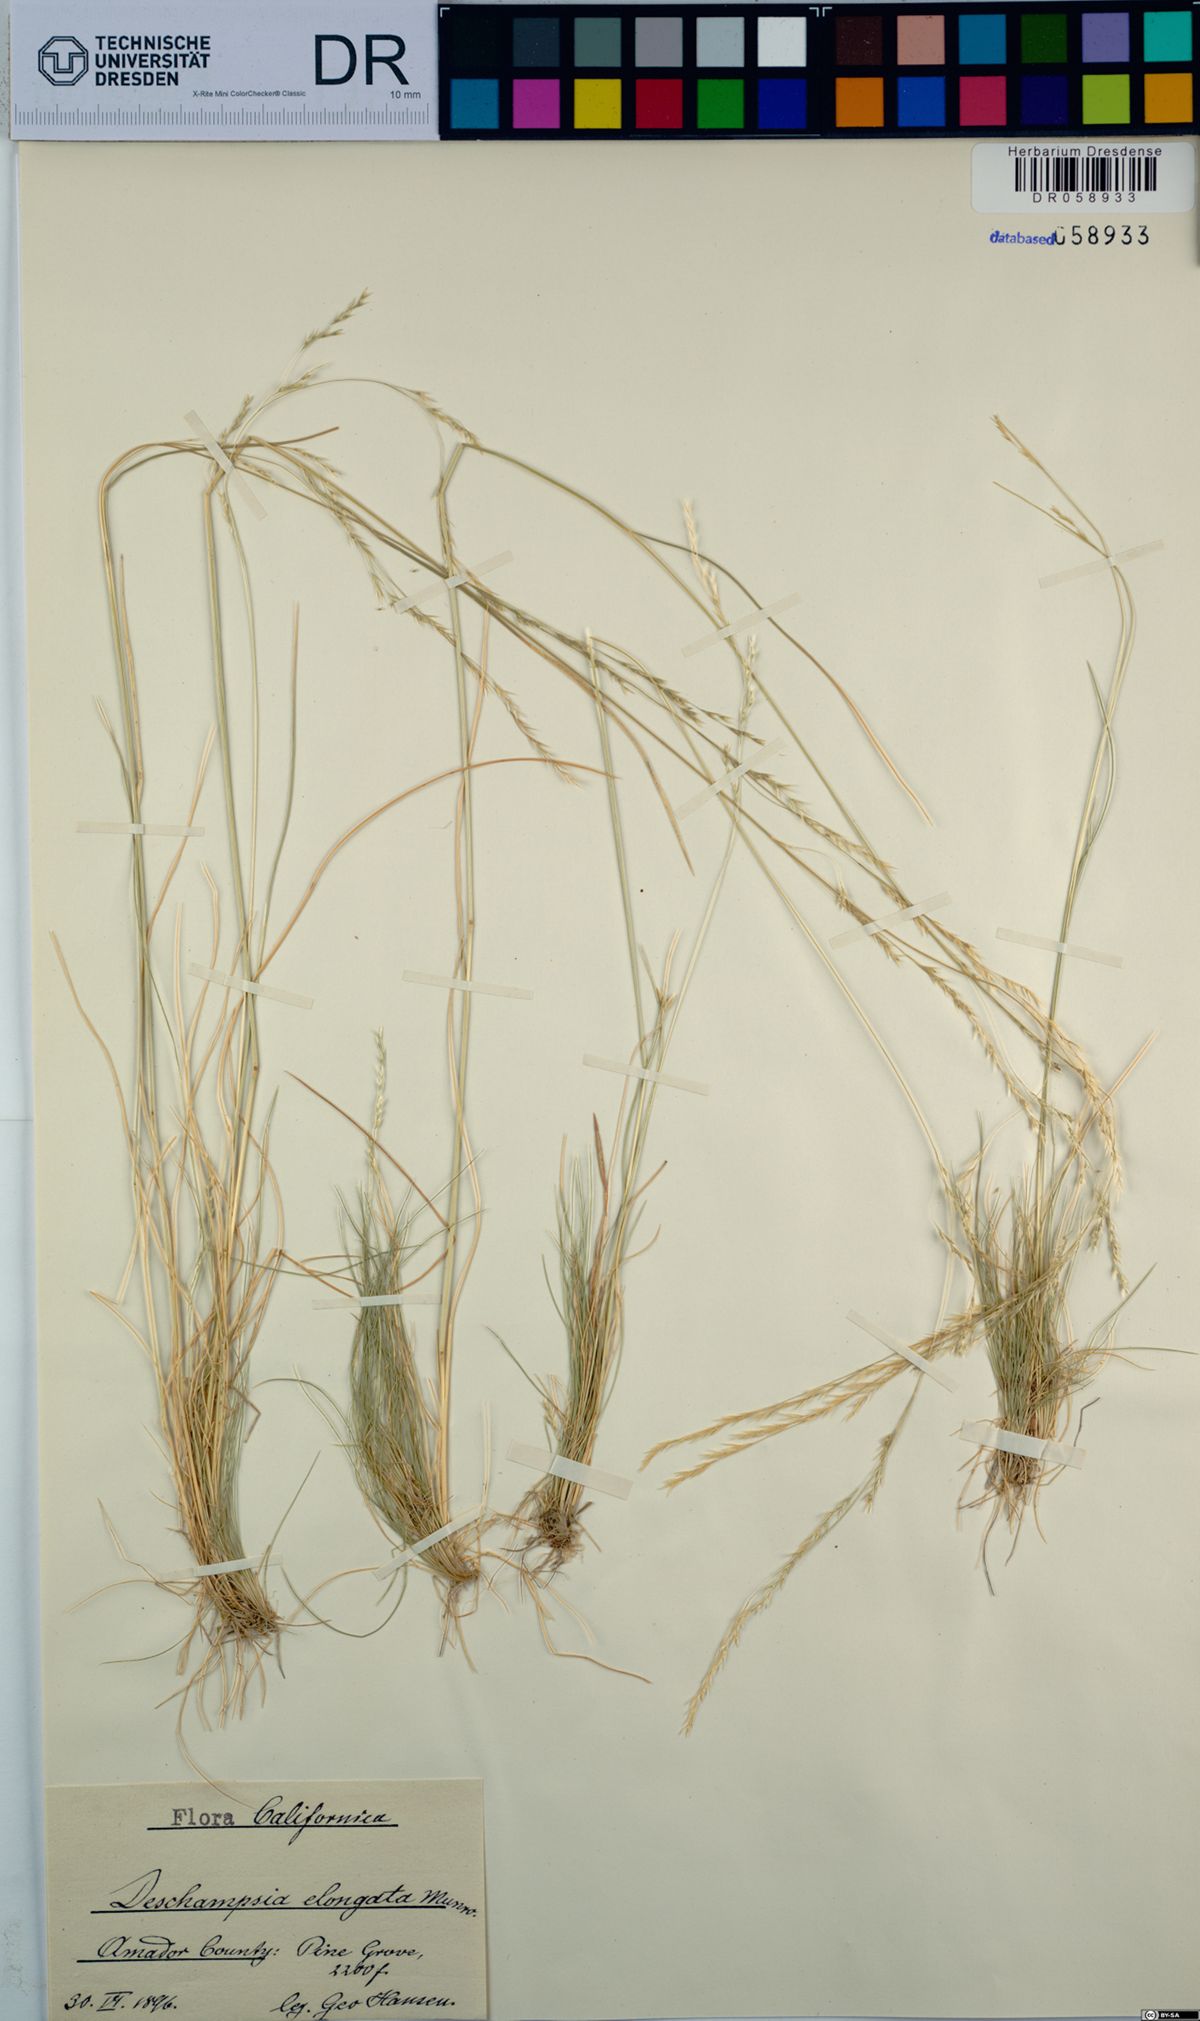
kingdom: Plantae
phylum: Tracheophyta
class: Liliopsida
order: Poales
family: Poaceae
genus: Deschampsia
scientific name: Deschampsia elongata
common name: Slender hairgrass
